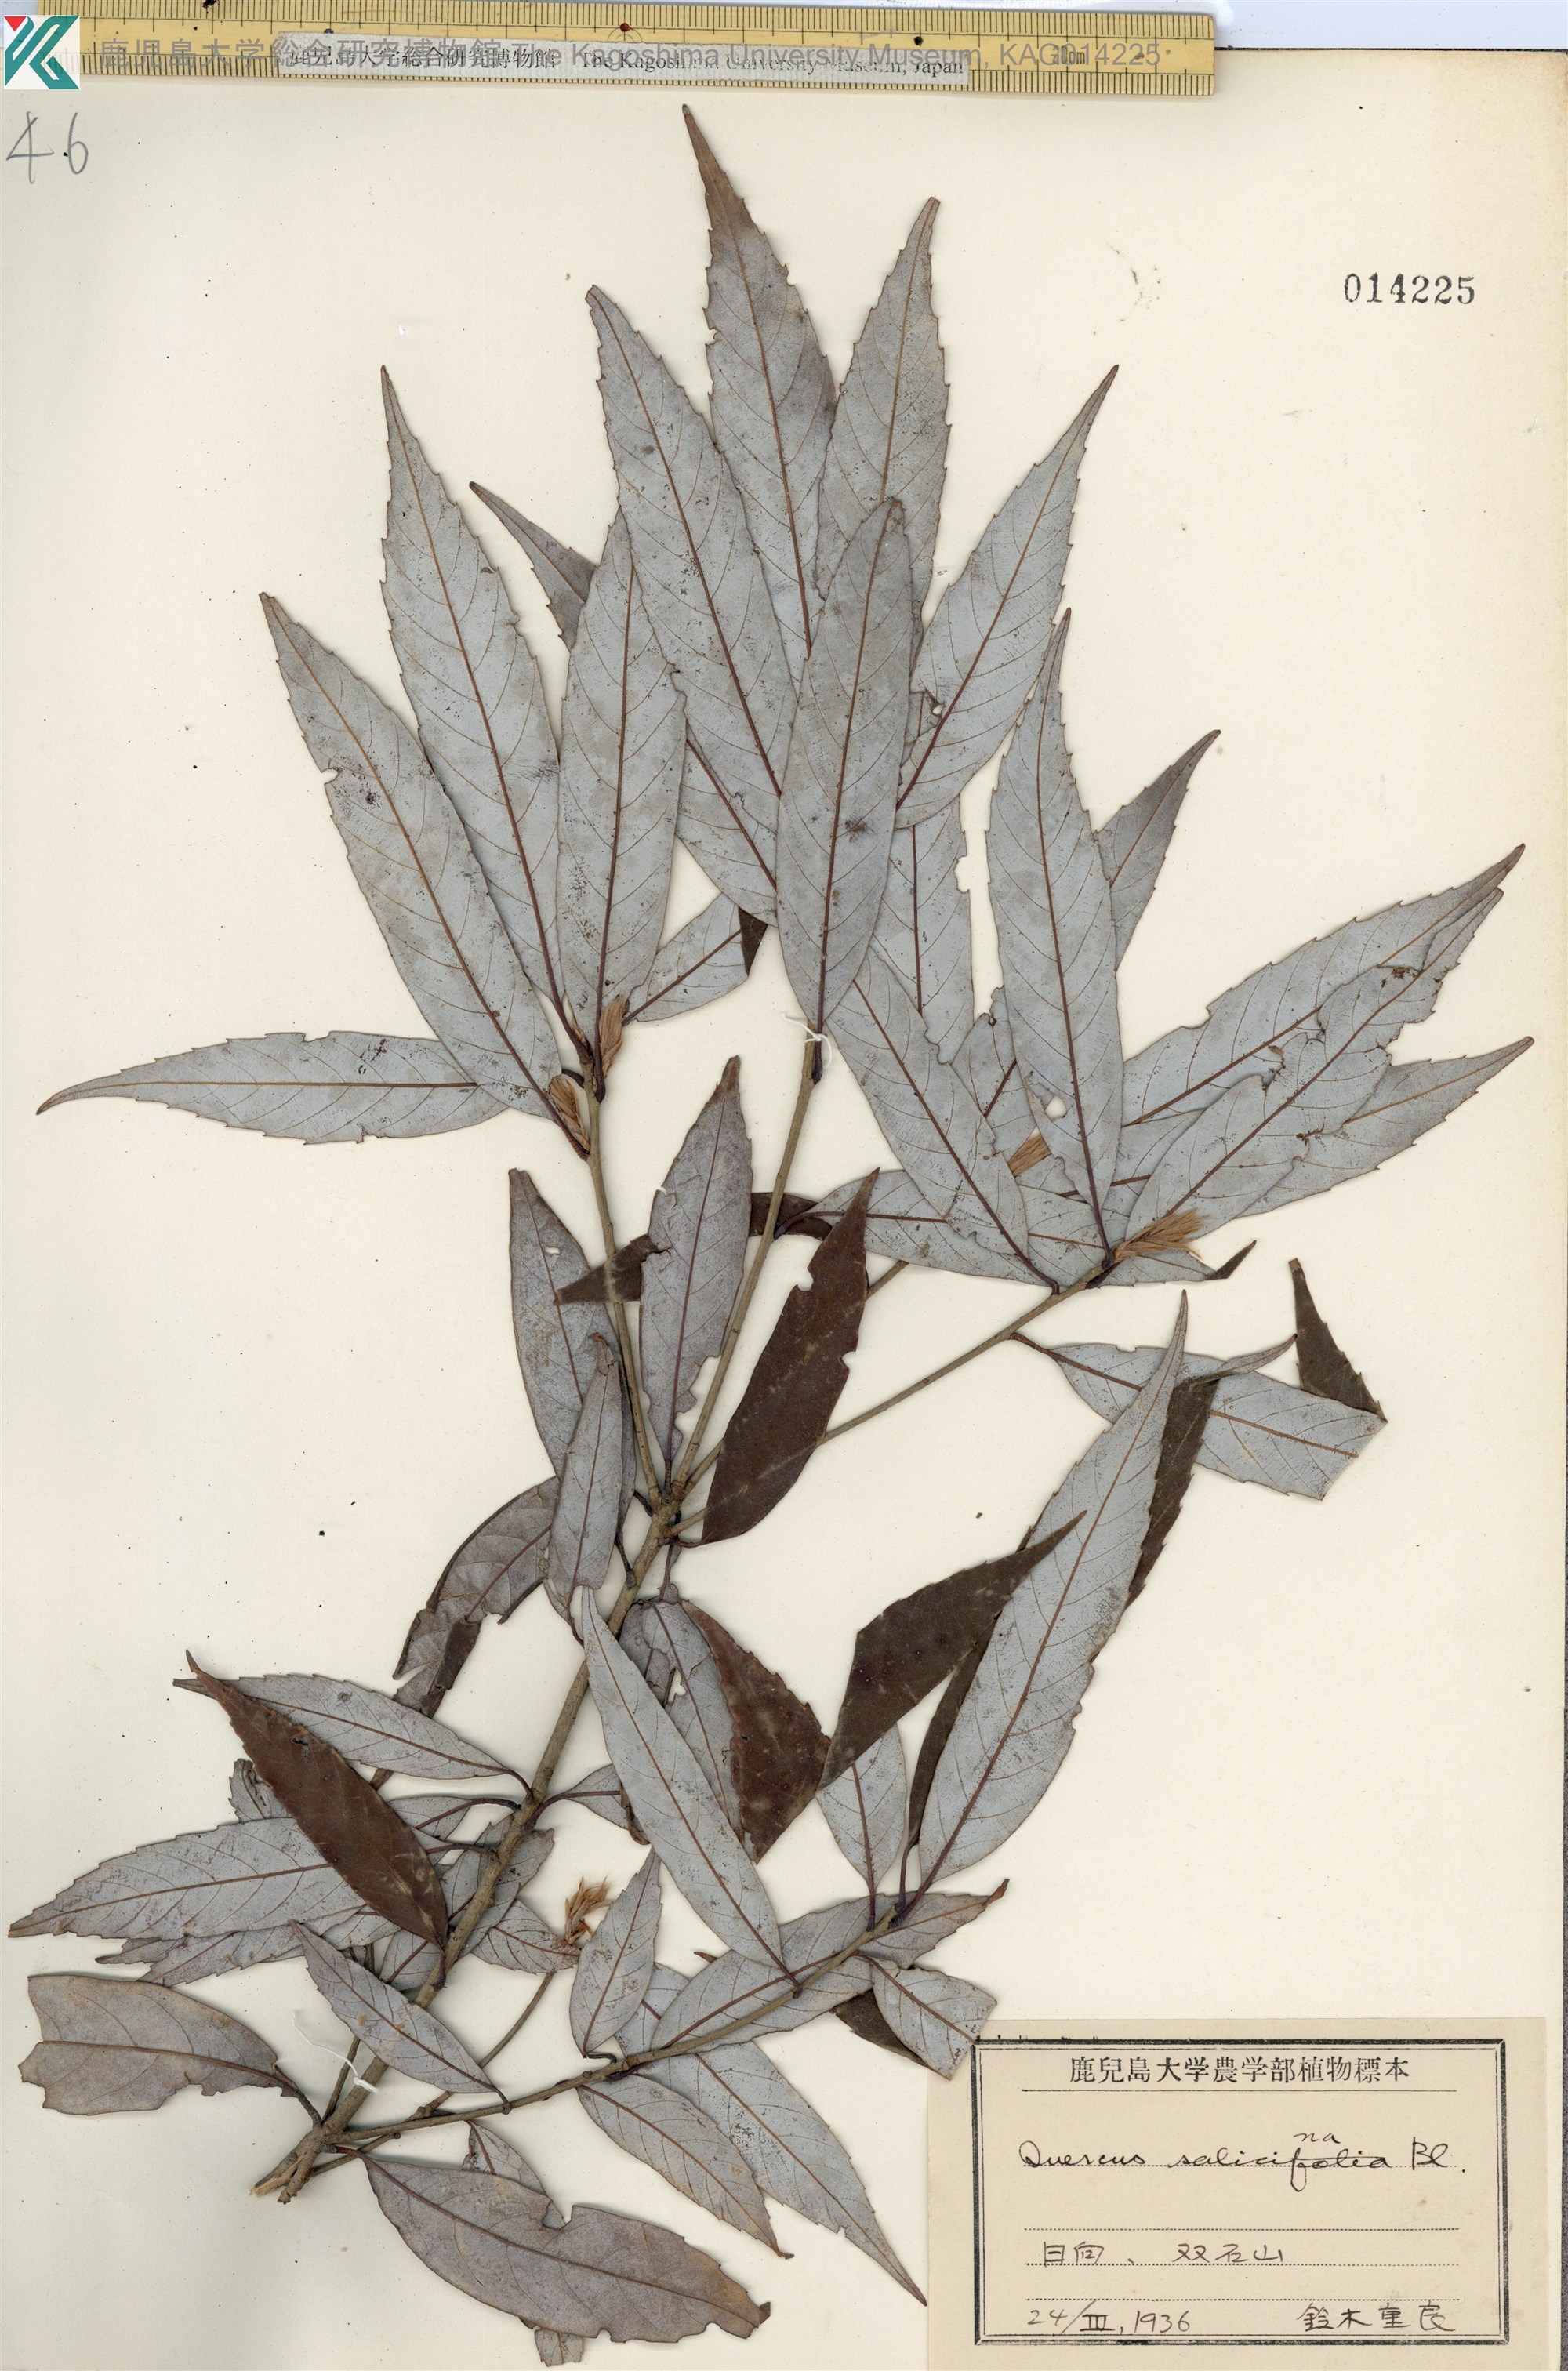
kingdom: Plantae
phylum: Tracheophyta
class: Magnoliopsida
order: Fagales
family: Fagaceae
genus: Quercus
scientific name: Quercus salicina
